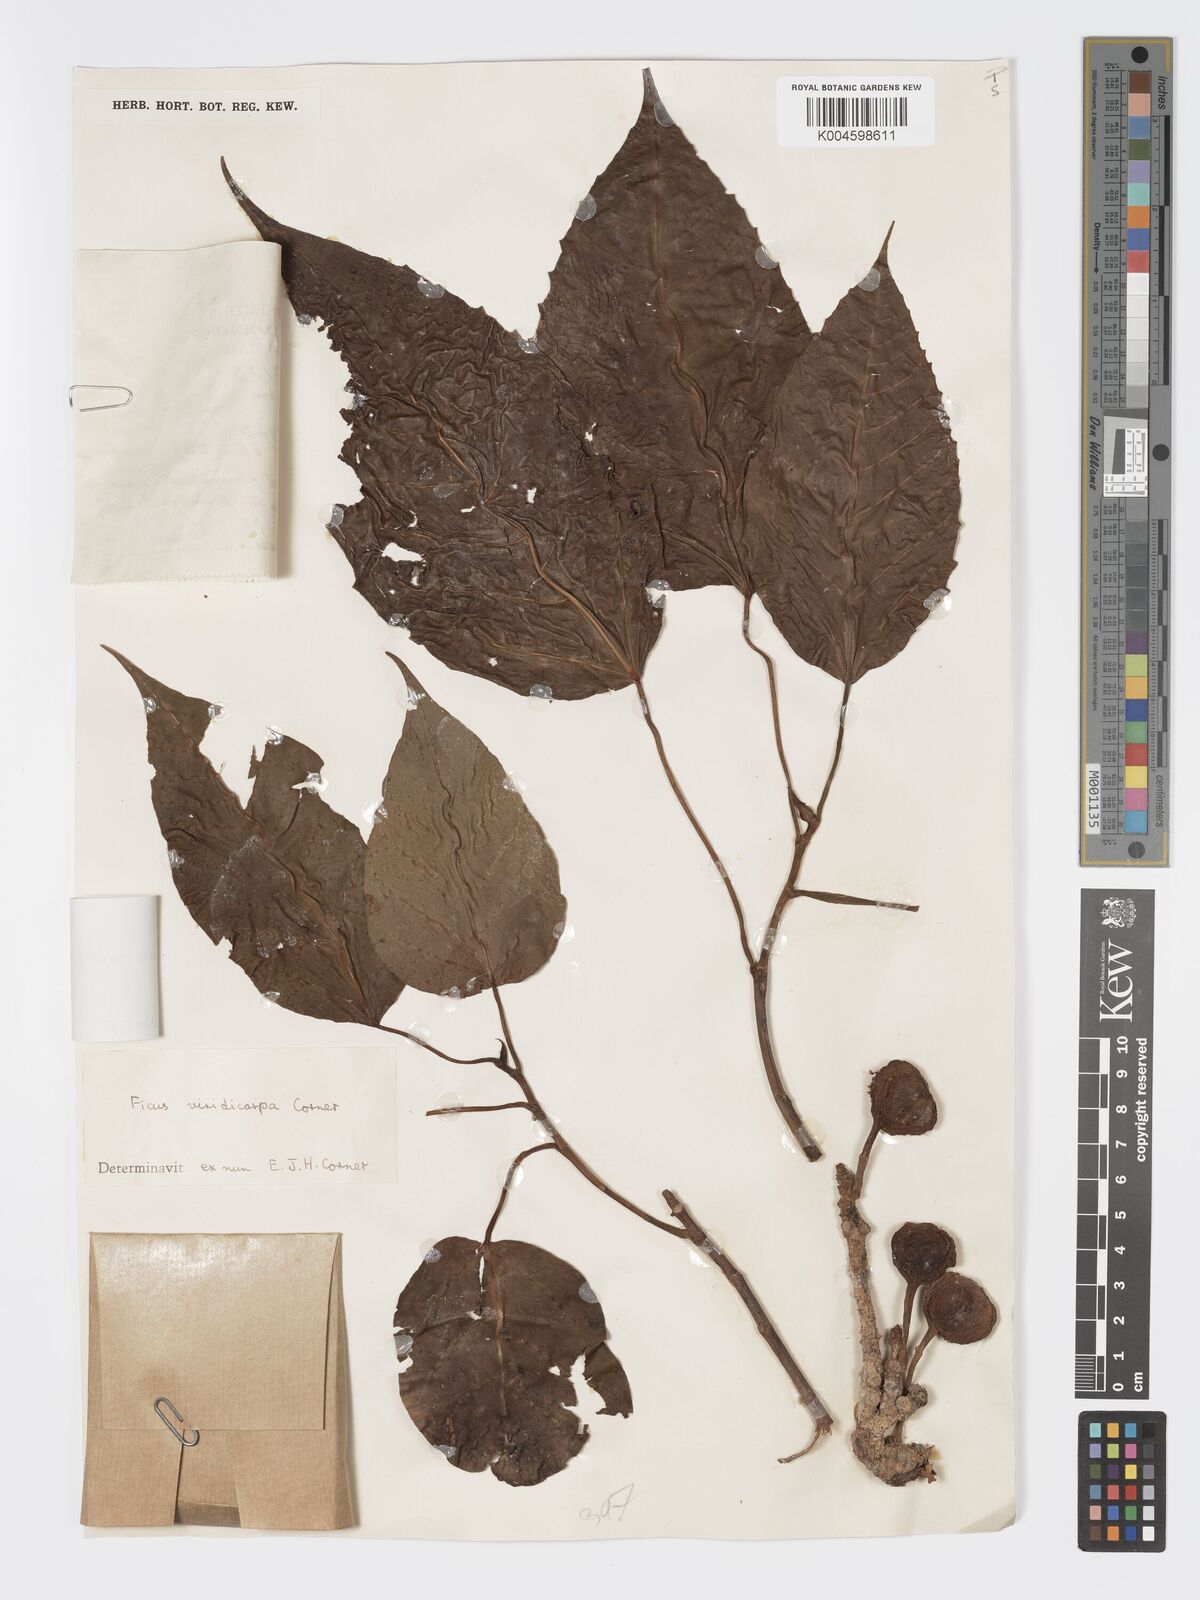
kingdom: Plantae
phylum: Tracheophyta
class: Magnoliopsida
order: Rosales
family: Moraceae
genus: Ficus
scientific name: Ficus variegata
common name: Variegated fig
